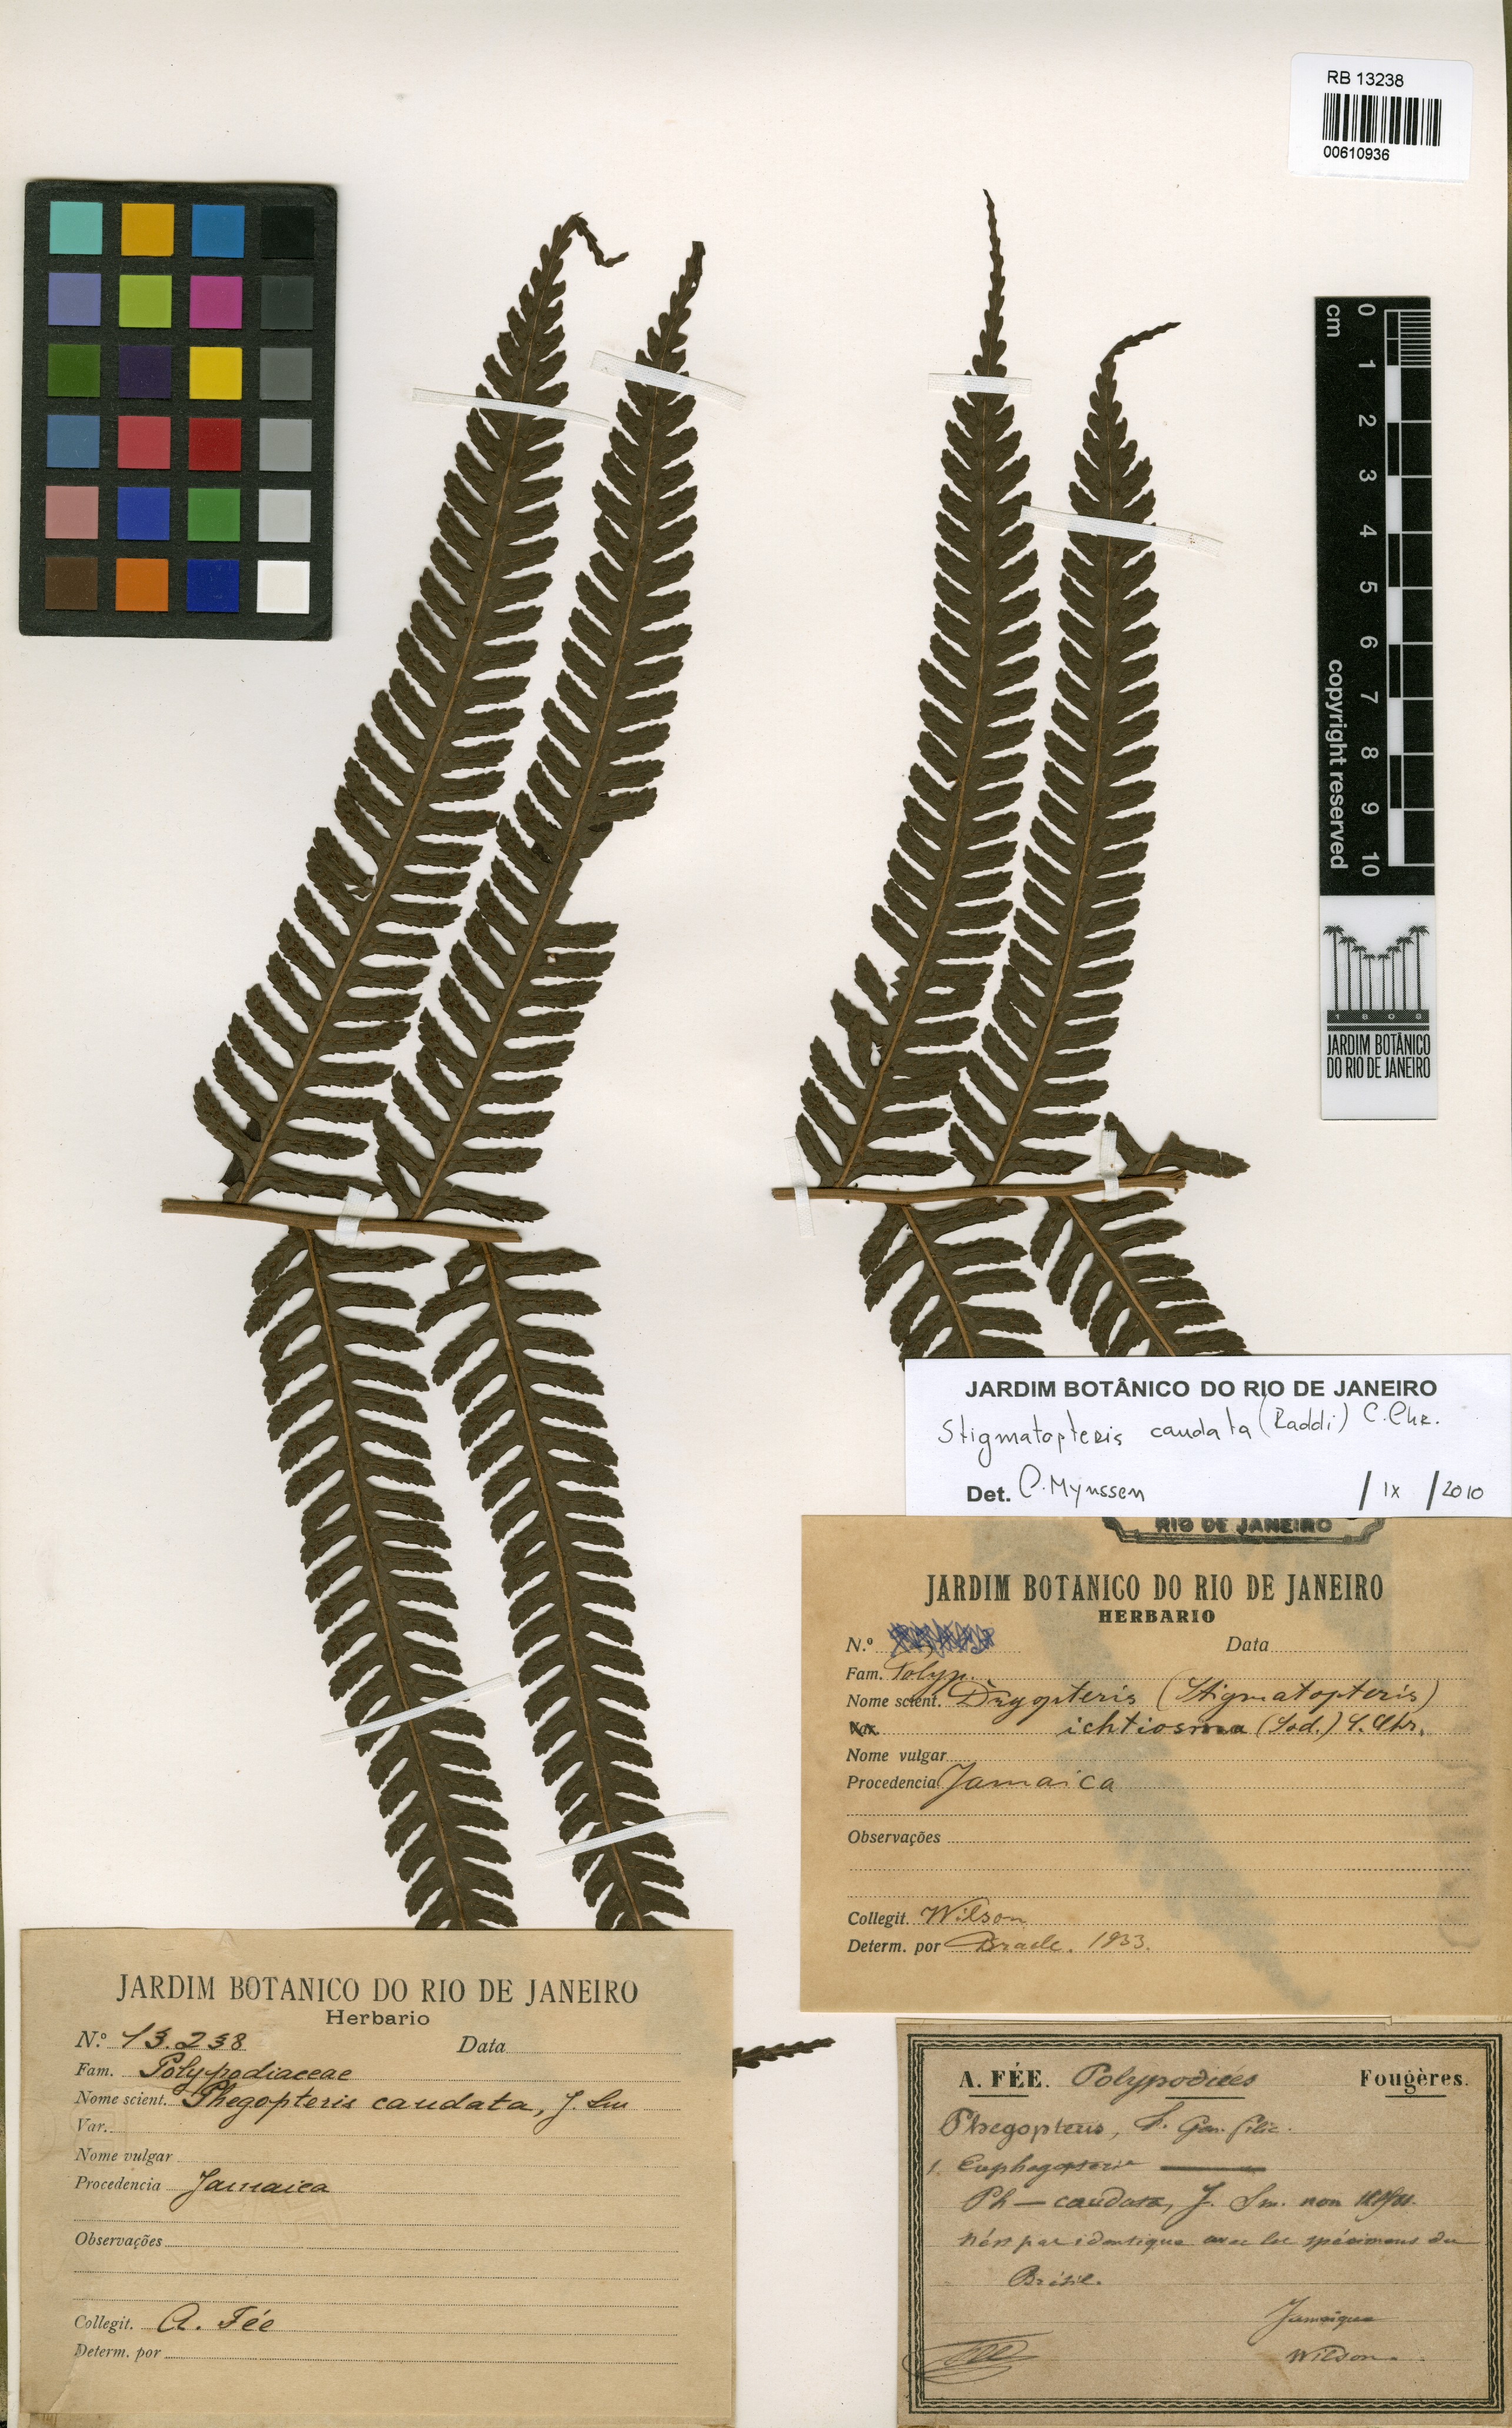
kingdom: Plantae
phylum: Tracheophyta
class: Polypodiopsida
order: Polypodiales
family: Dryopteridaceae
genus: Stigmatopteris
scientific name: Stigmatopteris caudata
